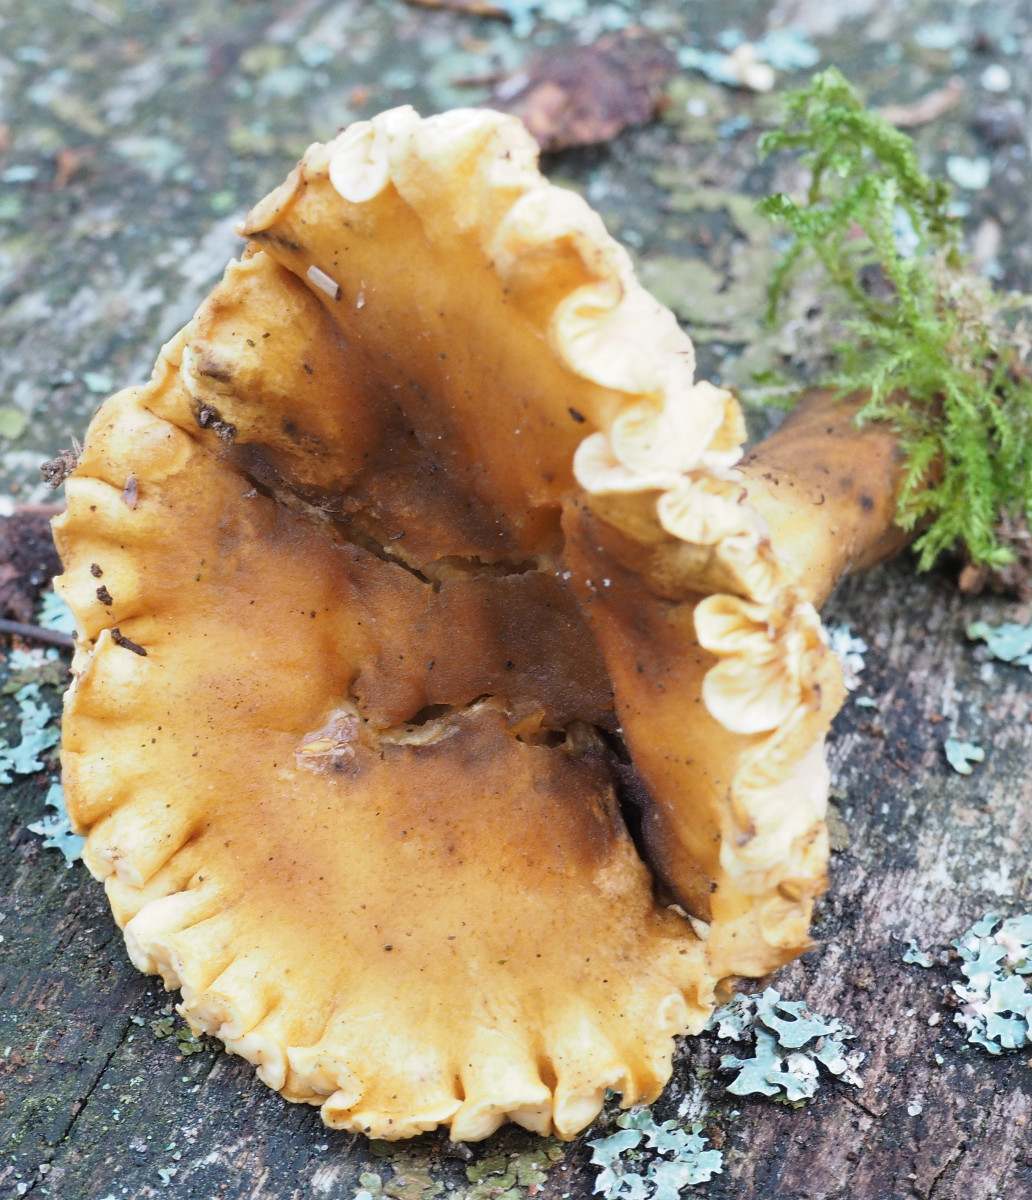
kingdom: Fungi
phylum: Basidiomycota
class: Agaricomycetes
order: Boletales
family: Hygrophoropsidaceae
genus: Hygrophoropsis
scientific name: Hygrophoropsis aurantiaca
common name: almindelig orangekantarel
